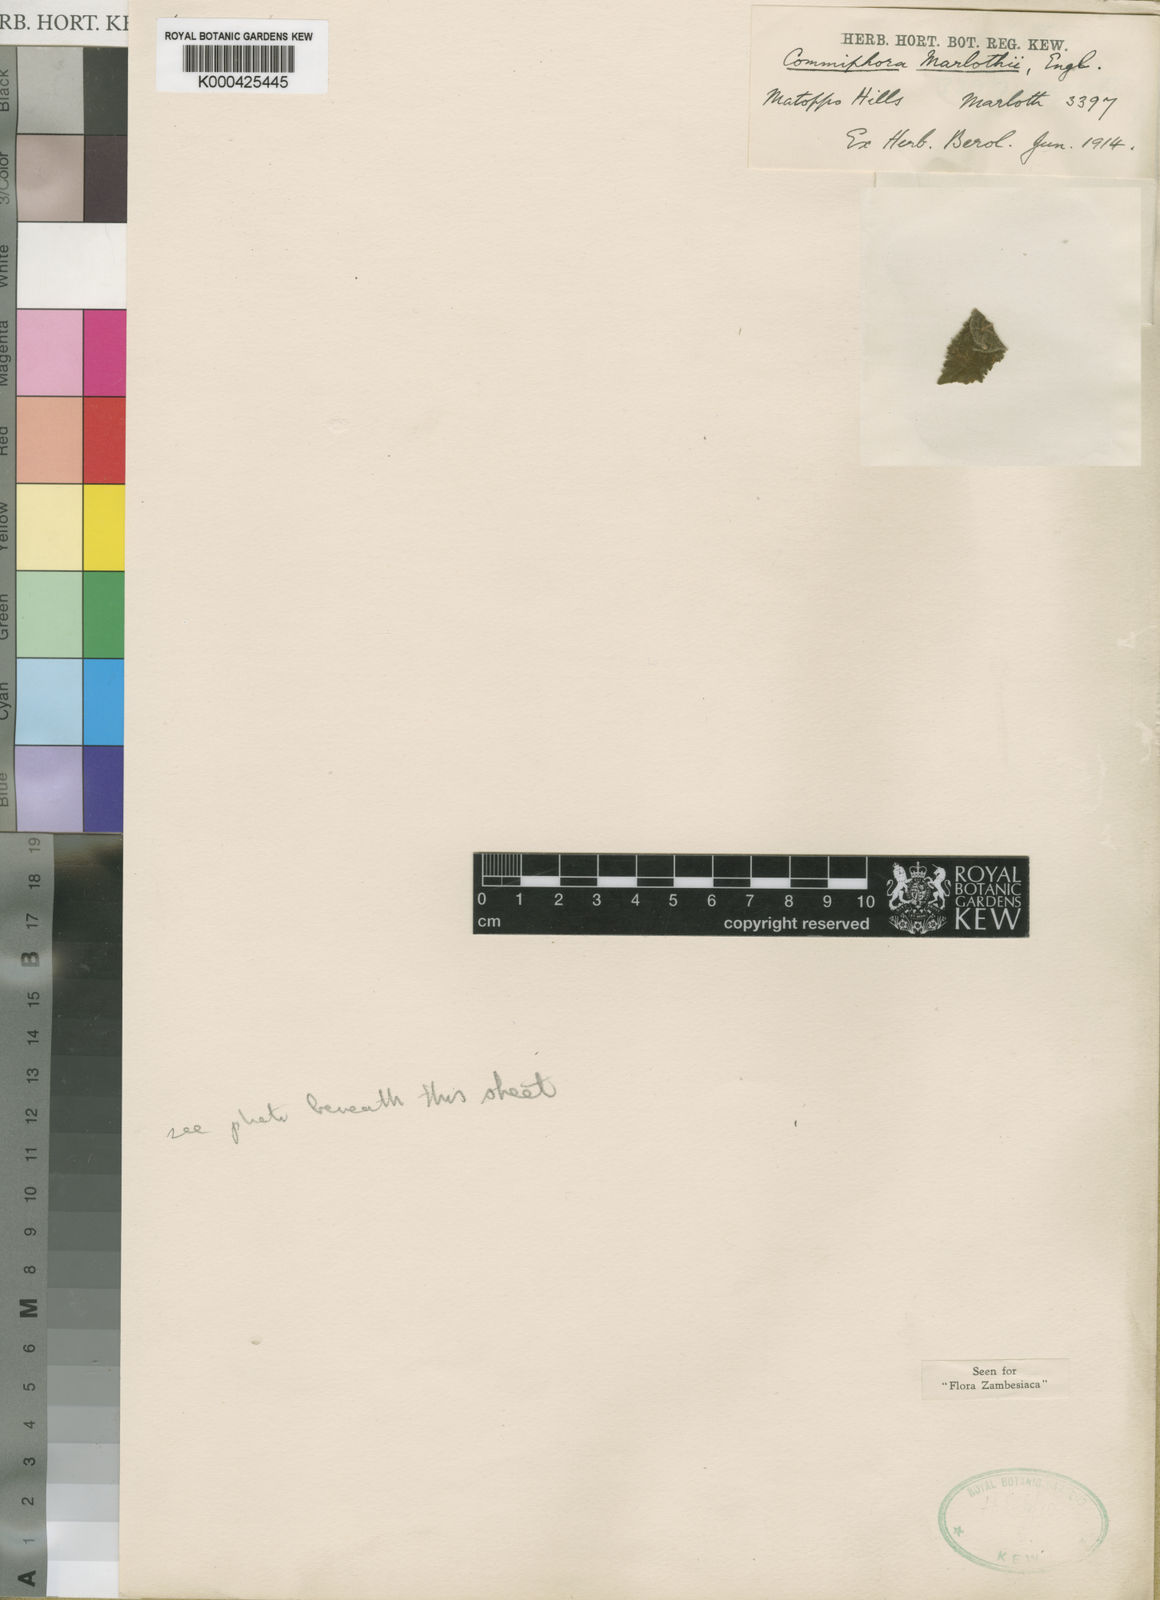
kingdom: Plantae
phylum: Tracheophyta
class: Magnoliopsida
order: Sapindales
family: Burseraceae
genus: Commiphora
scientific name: Commiphora marlothii
